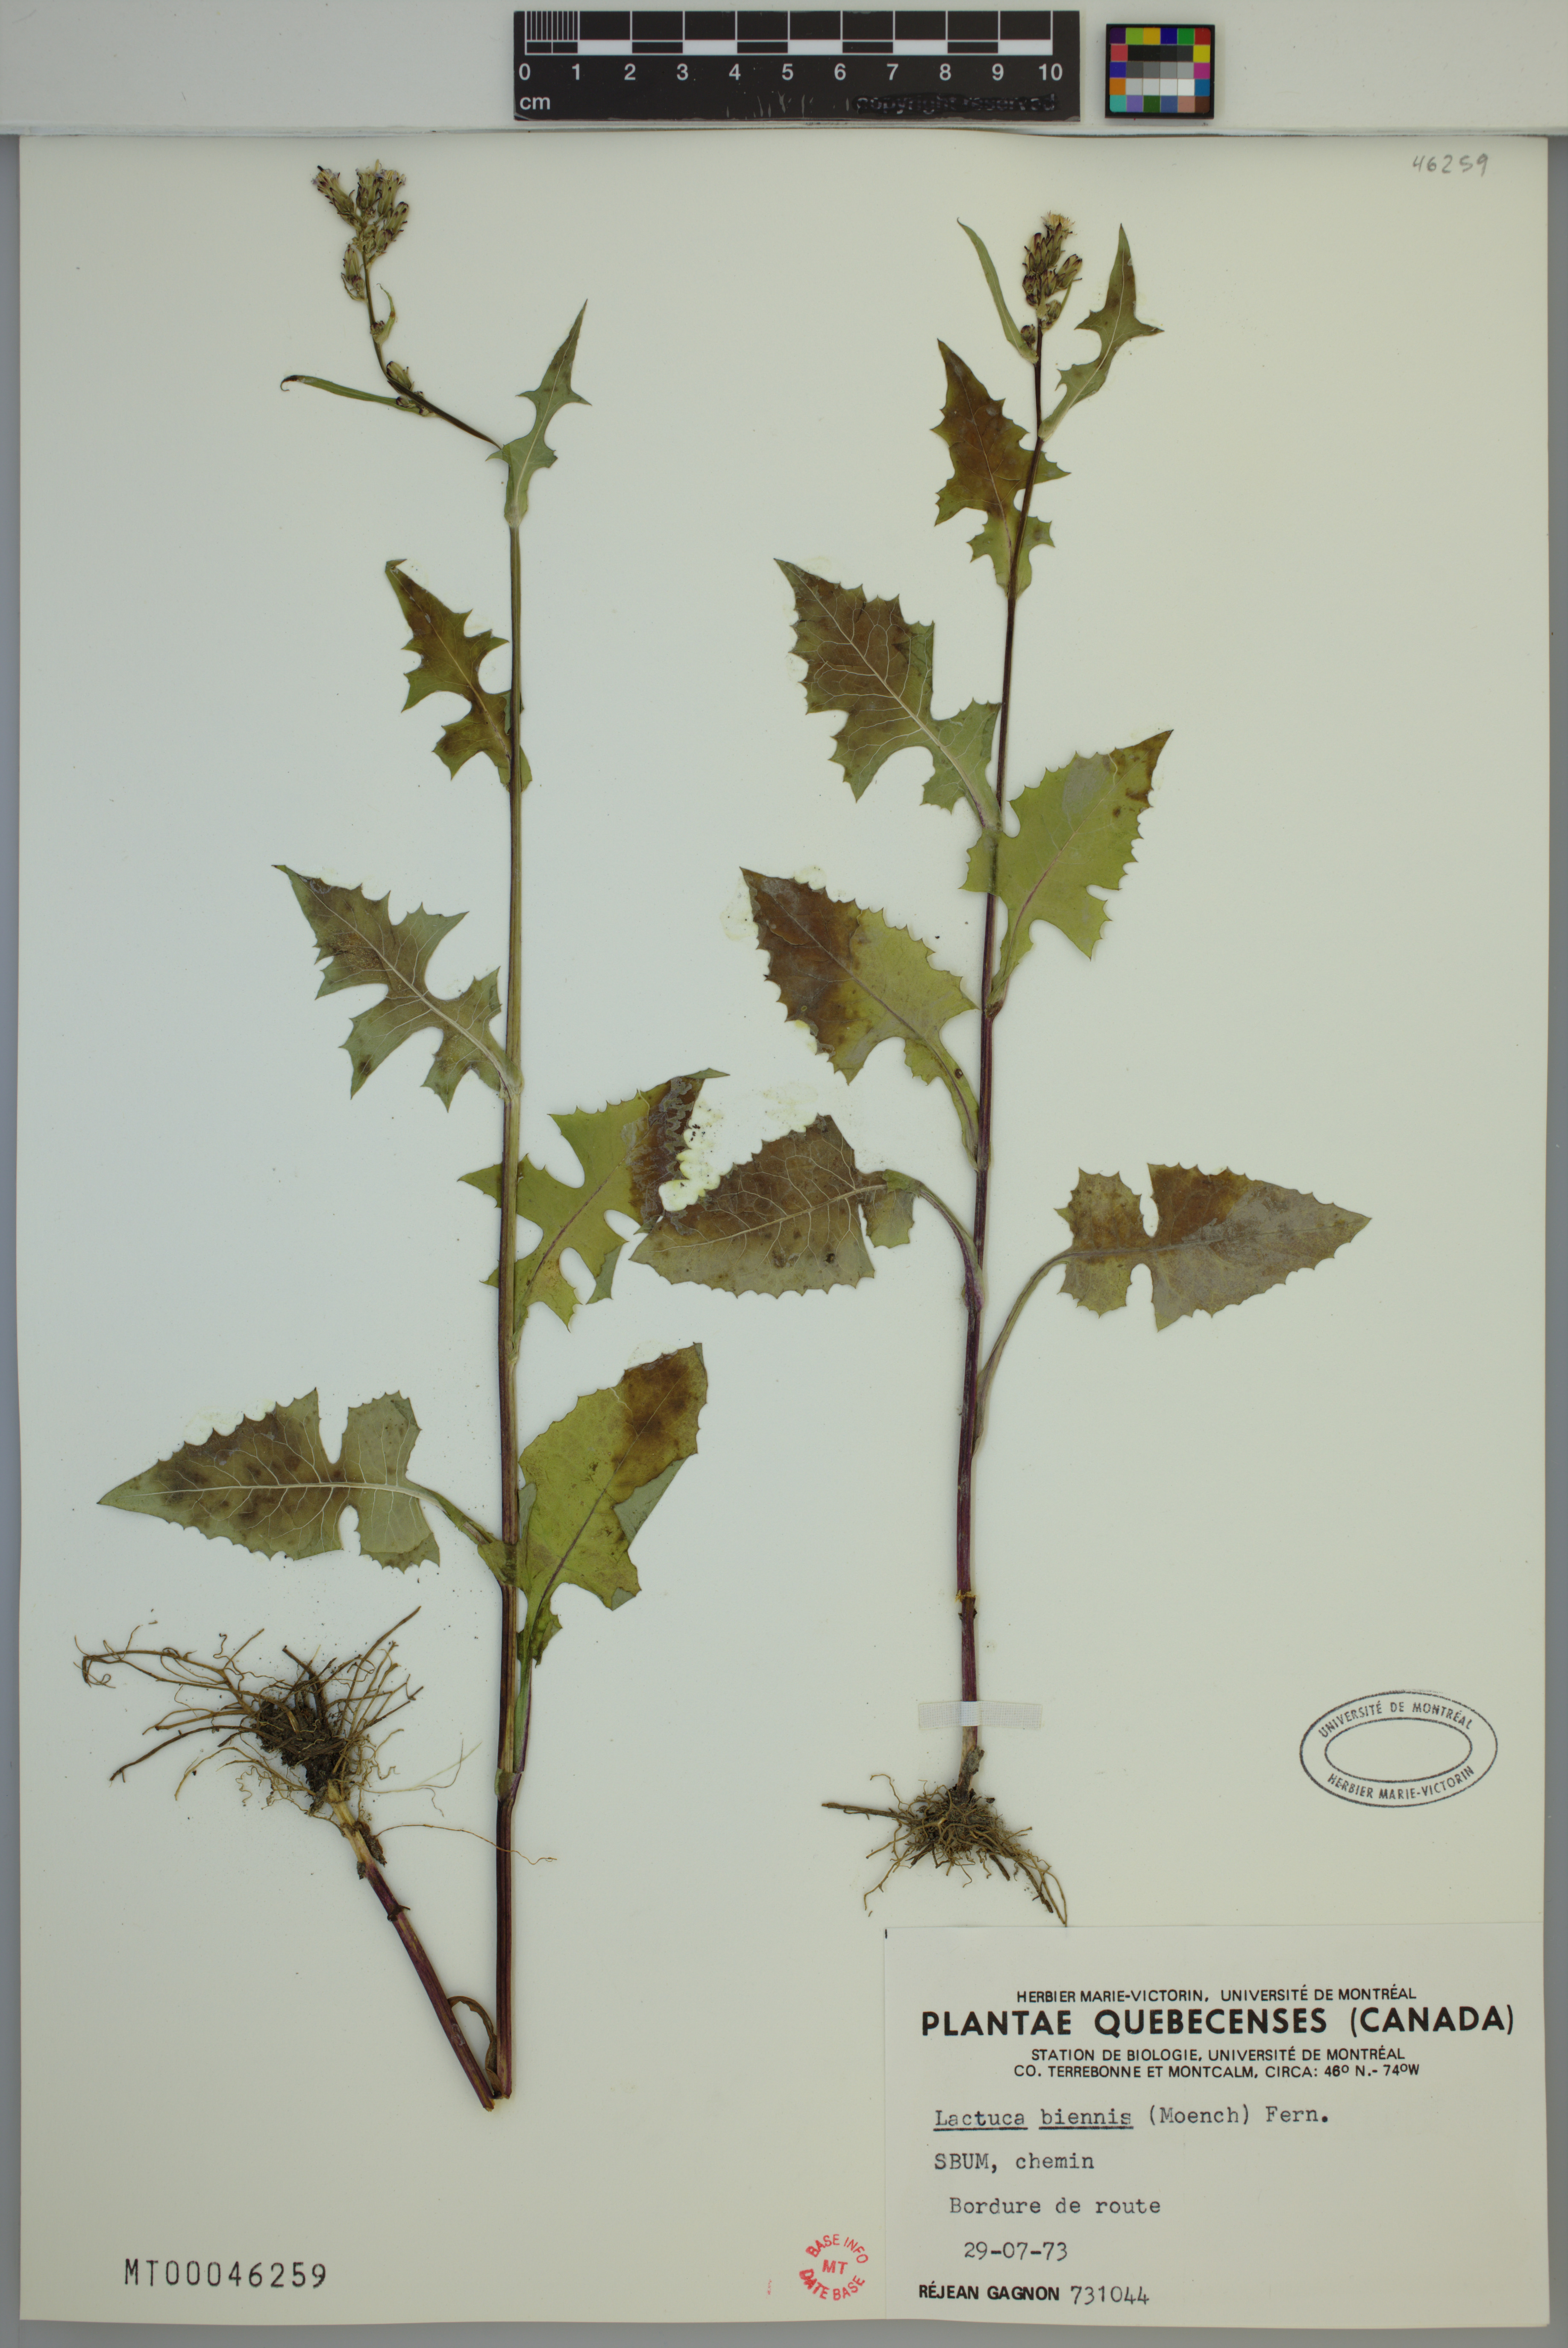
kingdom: Plantae
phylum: Tracheophyta
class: Magnoliopsida
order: Asterales
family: Asteraceae
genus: Lactuca
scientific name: Lactuca biennis
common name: Blue wood lettuce
